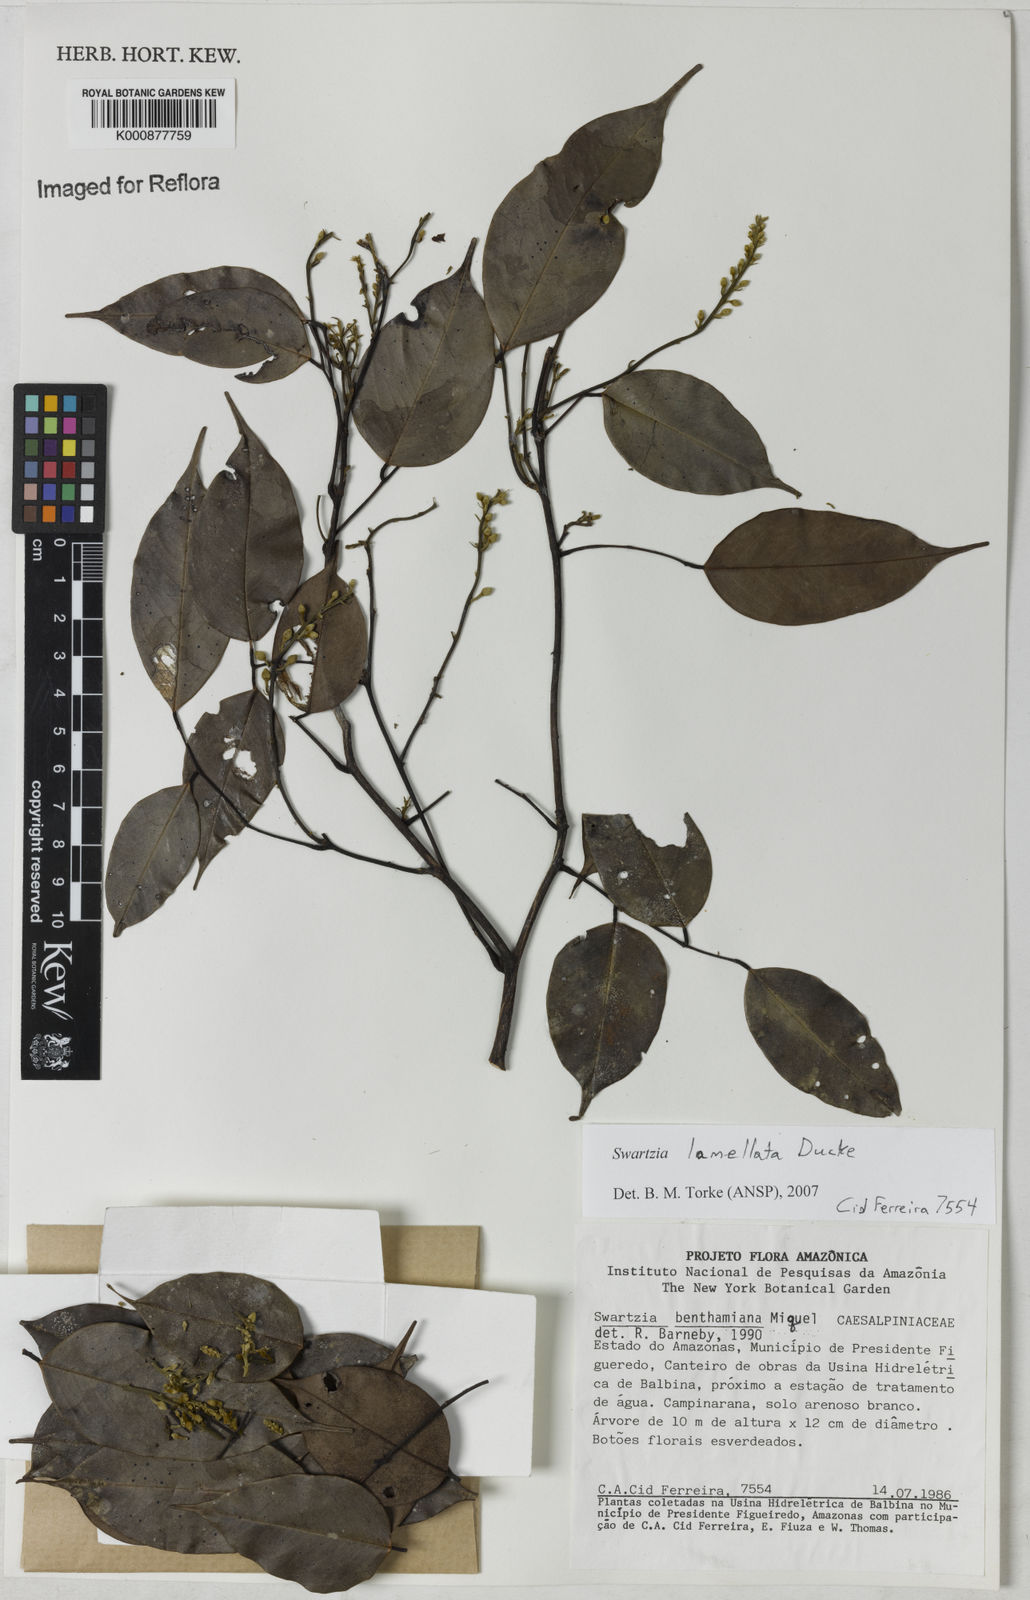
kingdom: Plantae
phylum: Tracheophyta
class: Magnoliopsida
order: Fabales
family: Fabaceae
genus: Swartzia
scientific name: Swartzia lamellata
